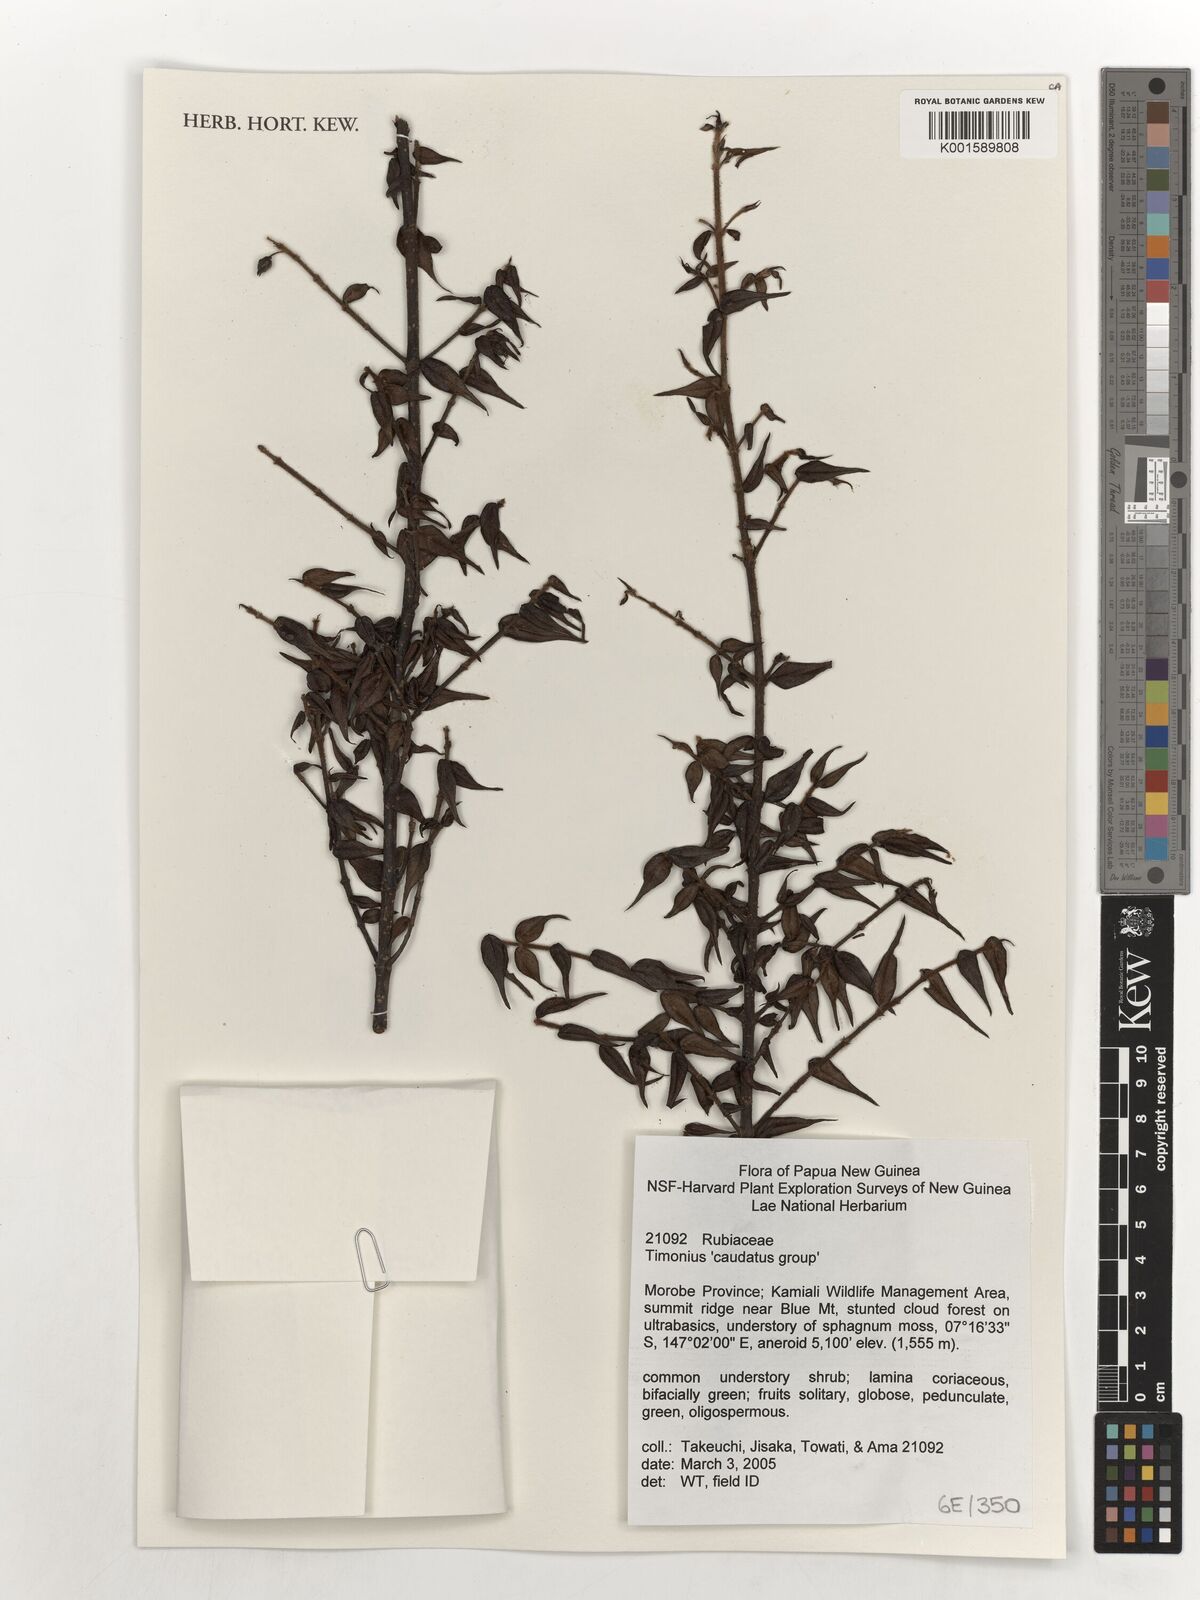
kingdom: Plantae
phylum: Tracheophyta
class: Magnoliopsida
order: Gentianales
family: Rubiaceae
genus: Timonius
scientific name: Timonius caudatus
